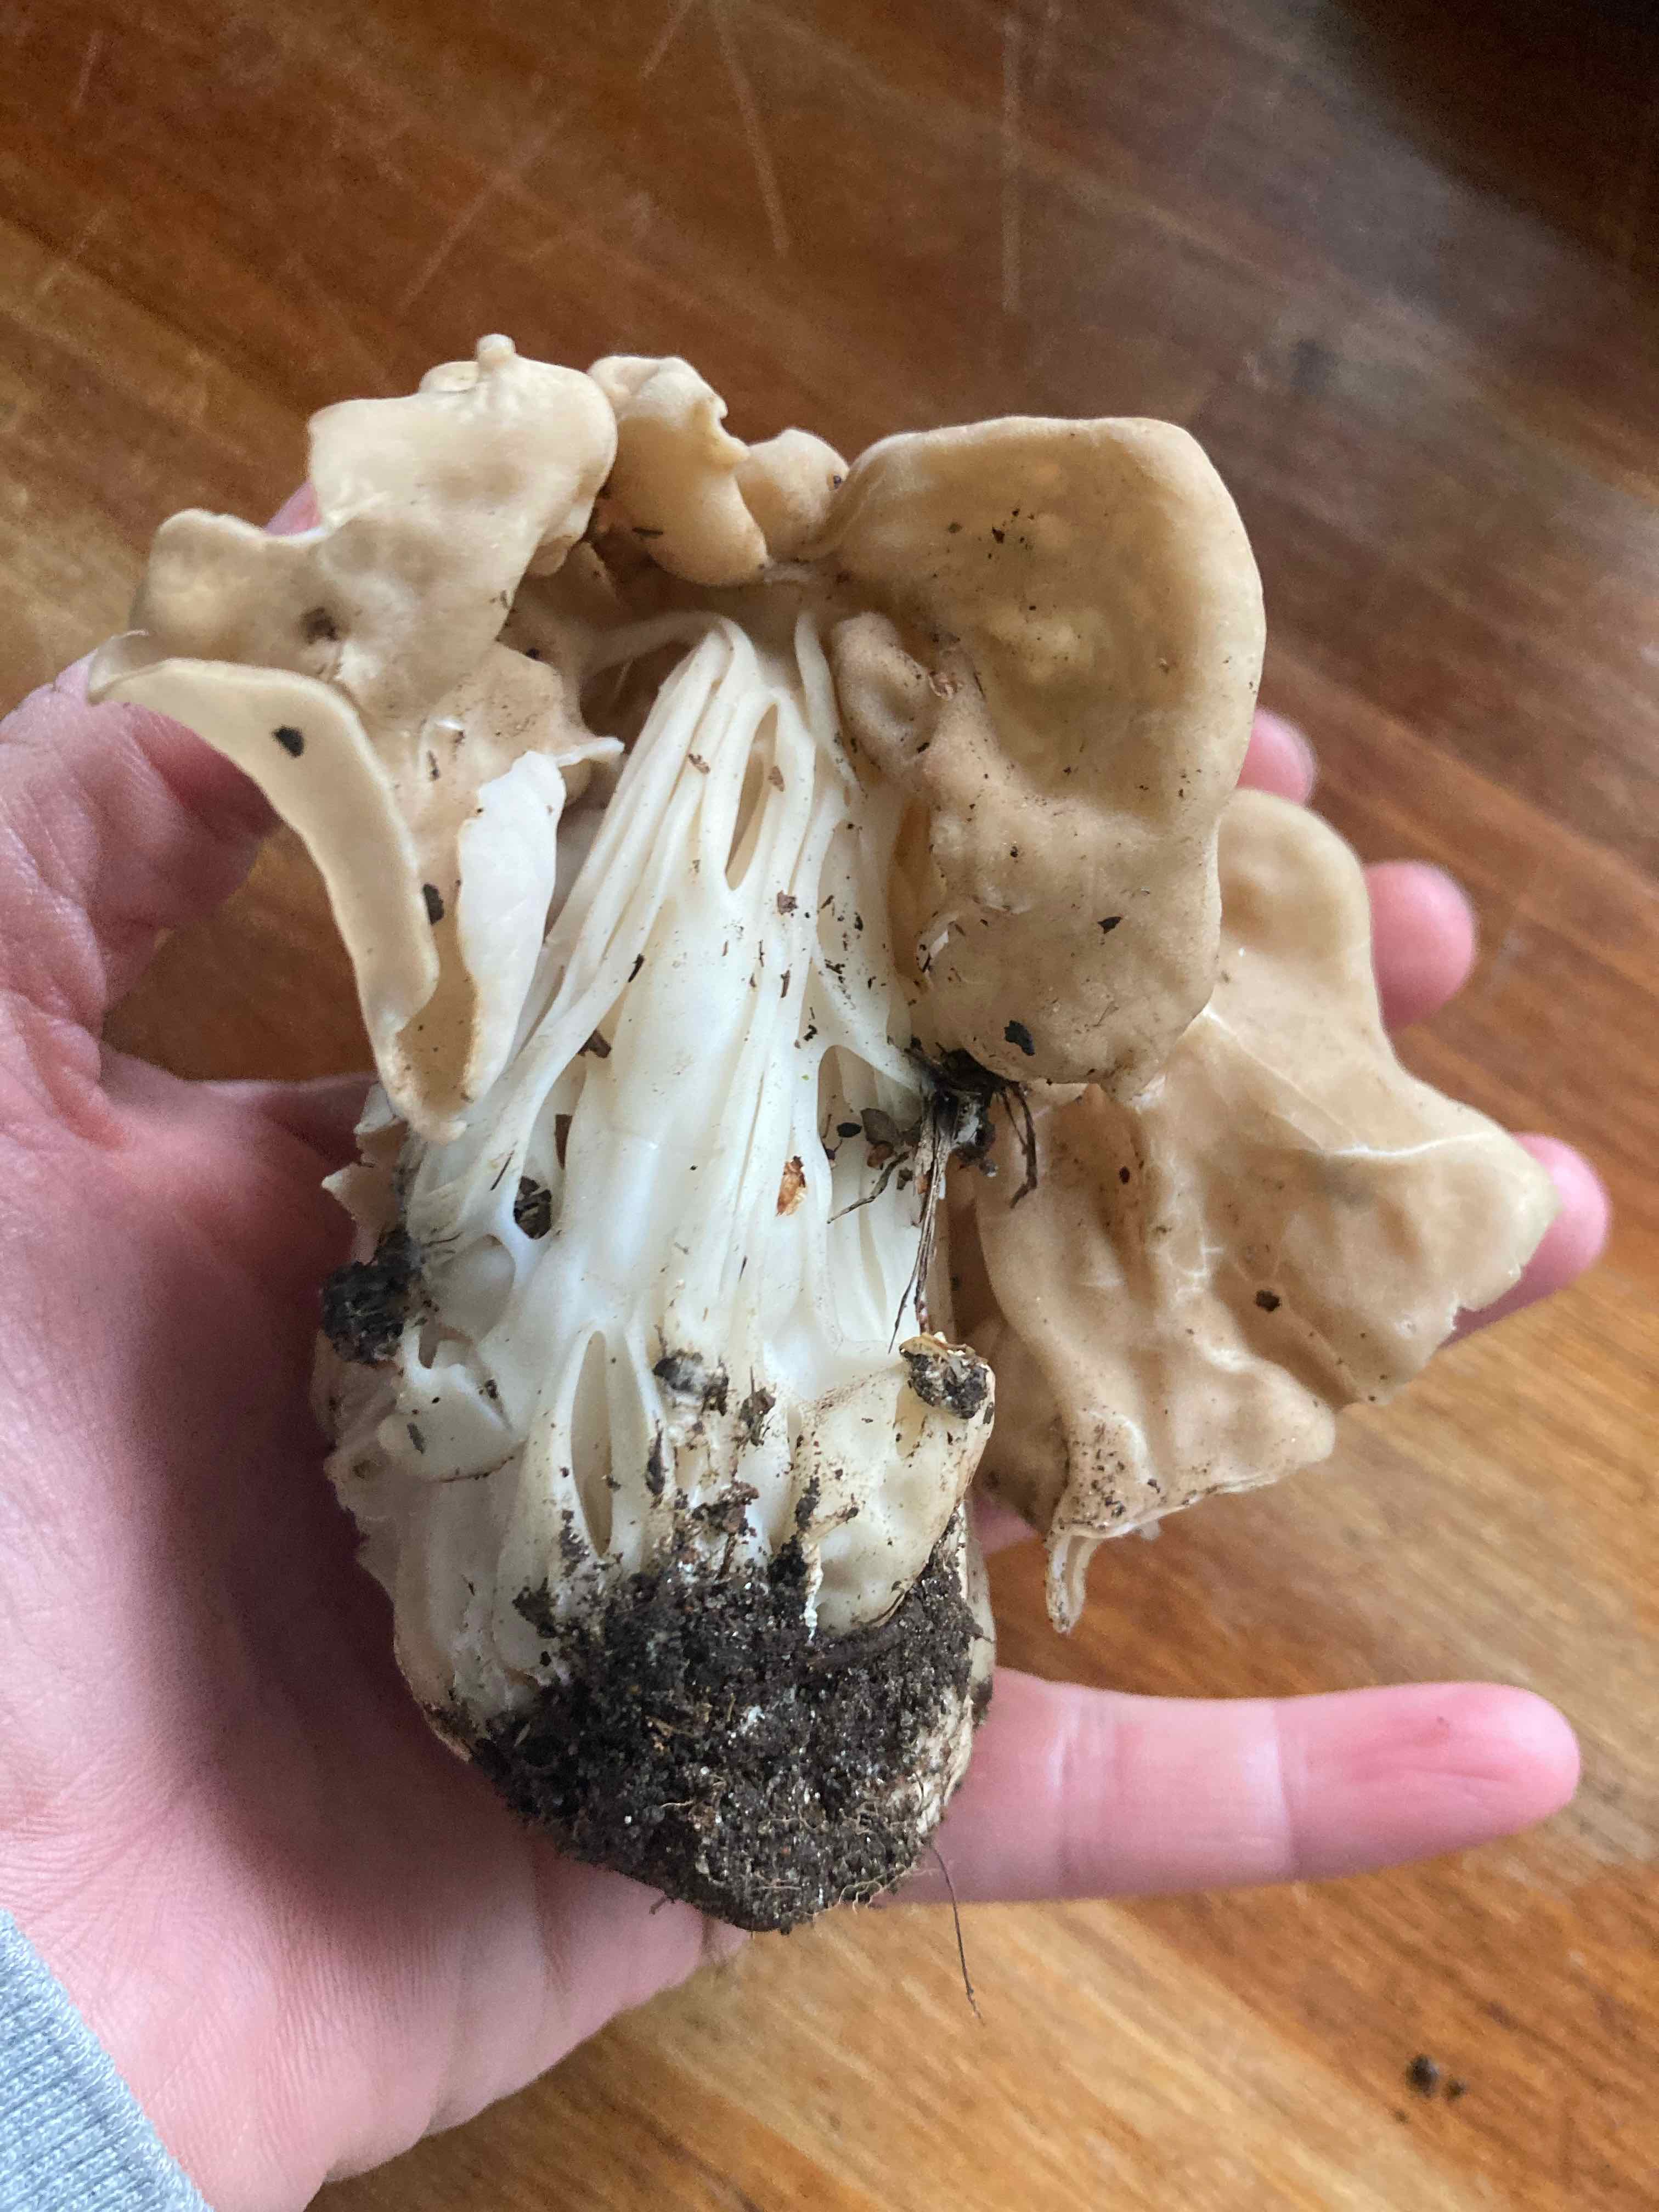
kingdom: Fungi
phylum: Ascomycota
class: Pezizomycetes
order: Pezizales
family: Helvellaceae
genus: Helvella
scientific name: Helvella crispa
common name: kruset foldhat
